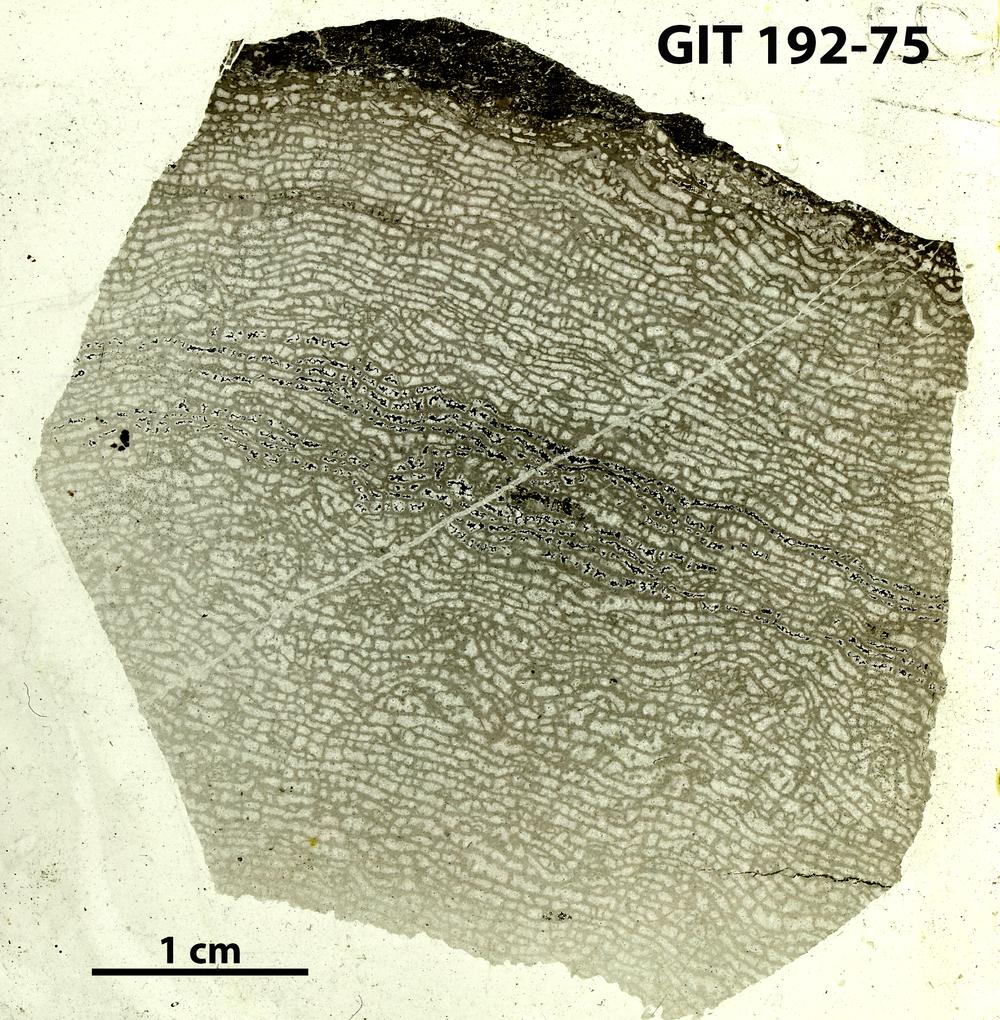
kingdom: Animalia
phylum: Porifera
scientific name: Porifera
